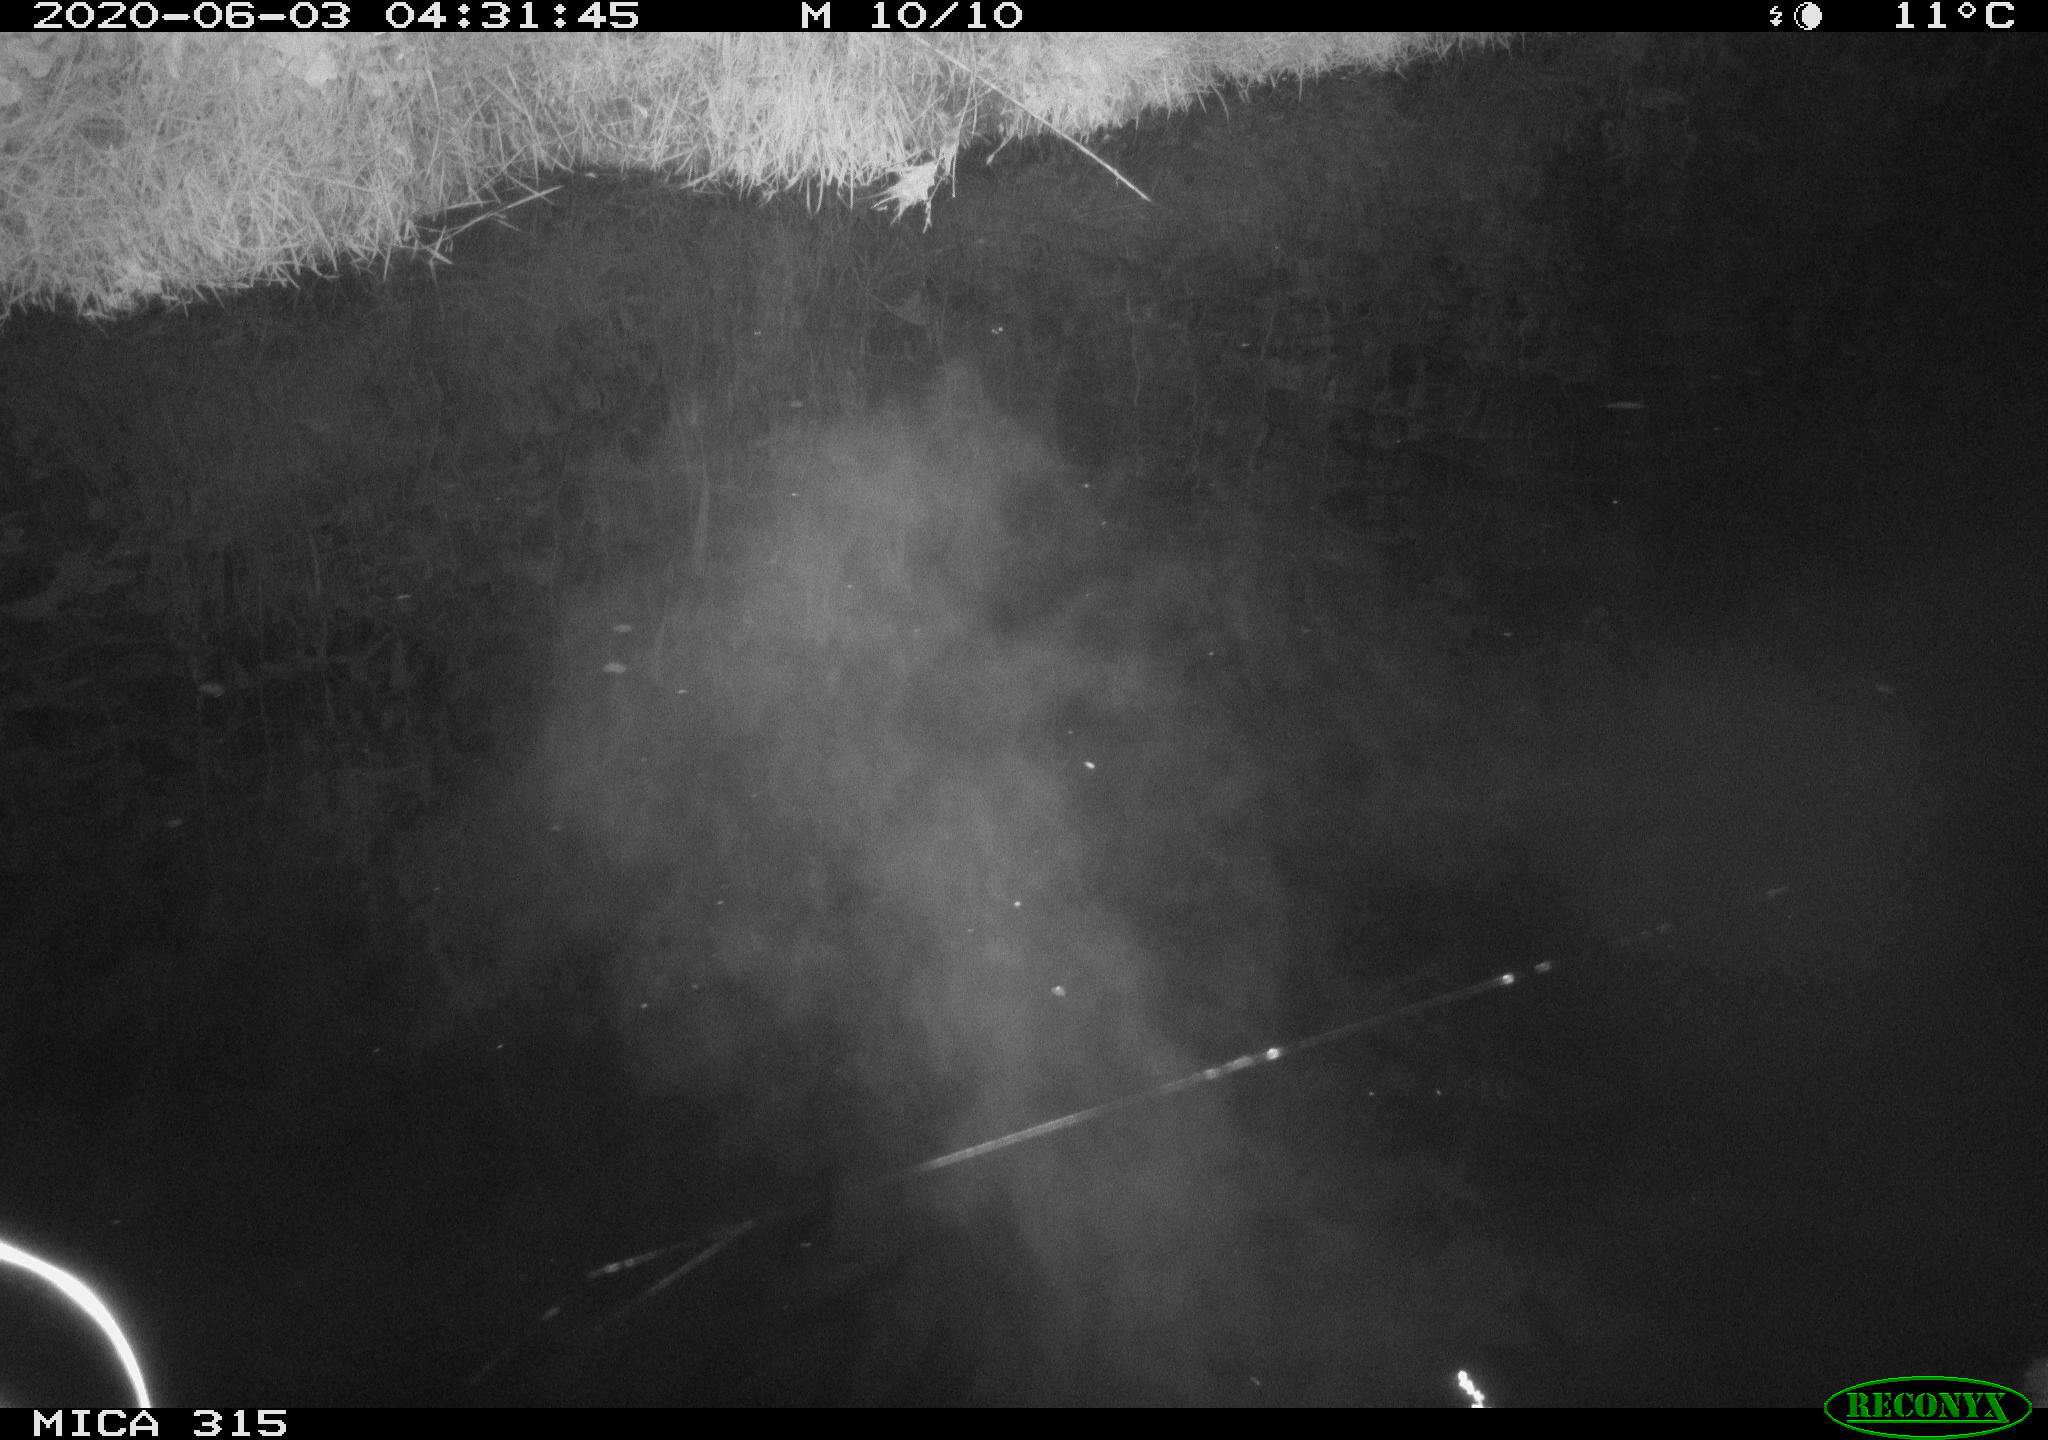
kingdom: Animalia
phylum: Chordata
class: Aves
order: Anseriformes
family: Anatidae
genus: Anas
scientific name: Anas platyrhynchos
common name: Mallard
